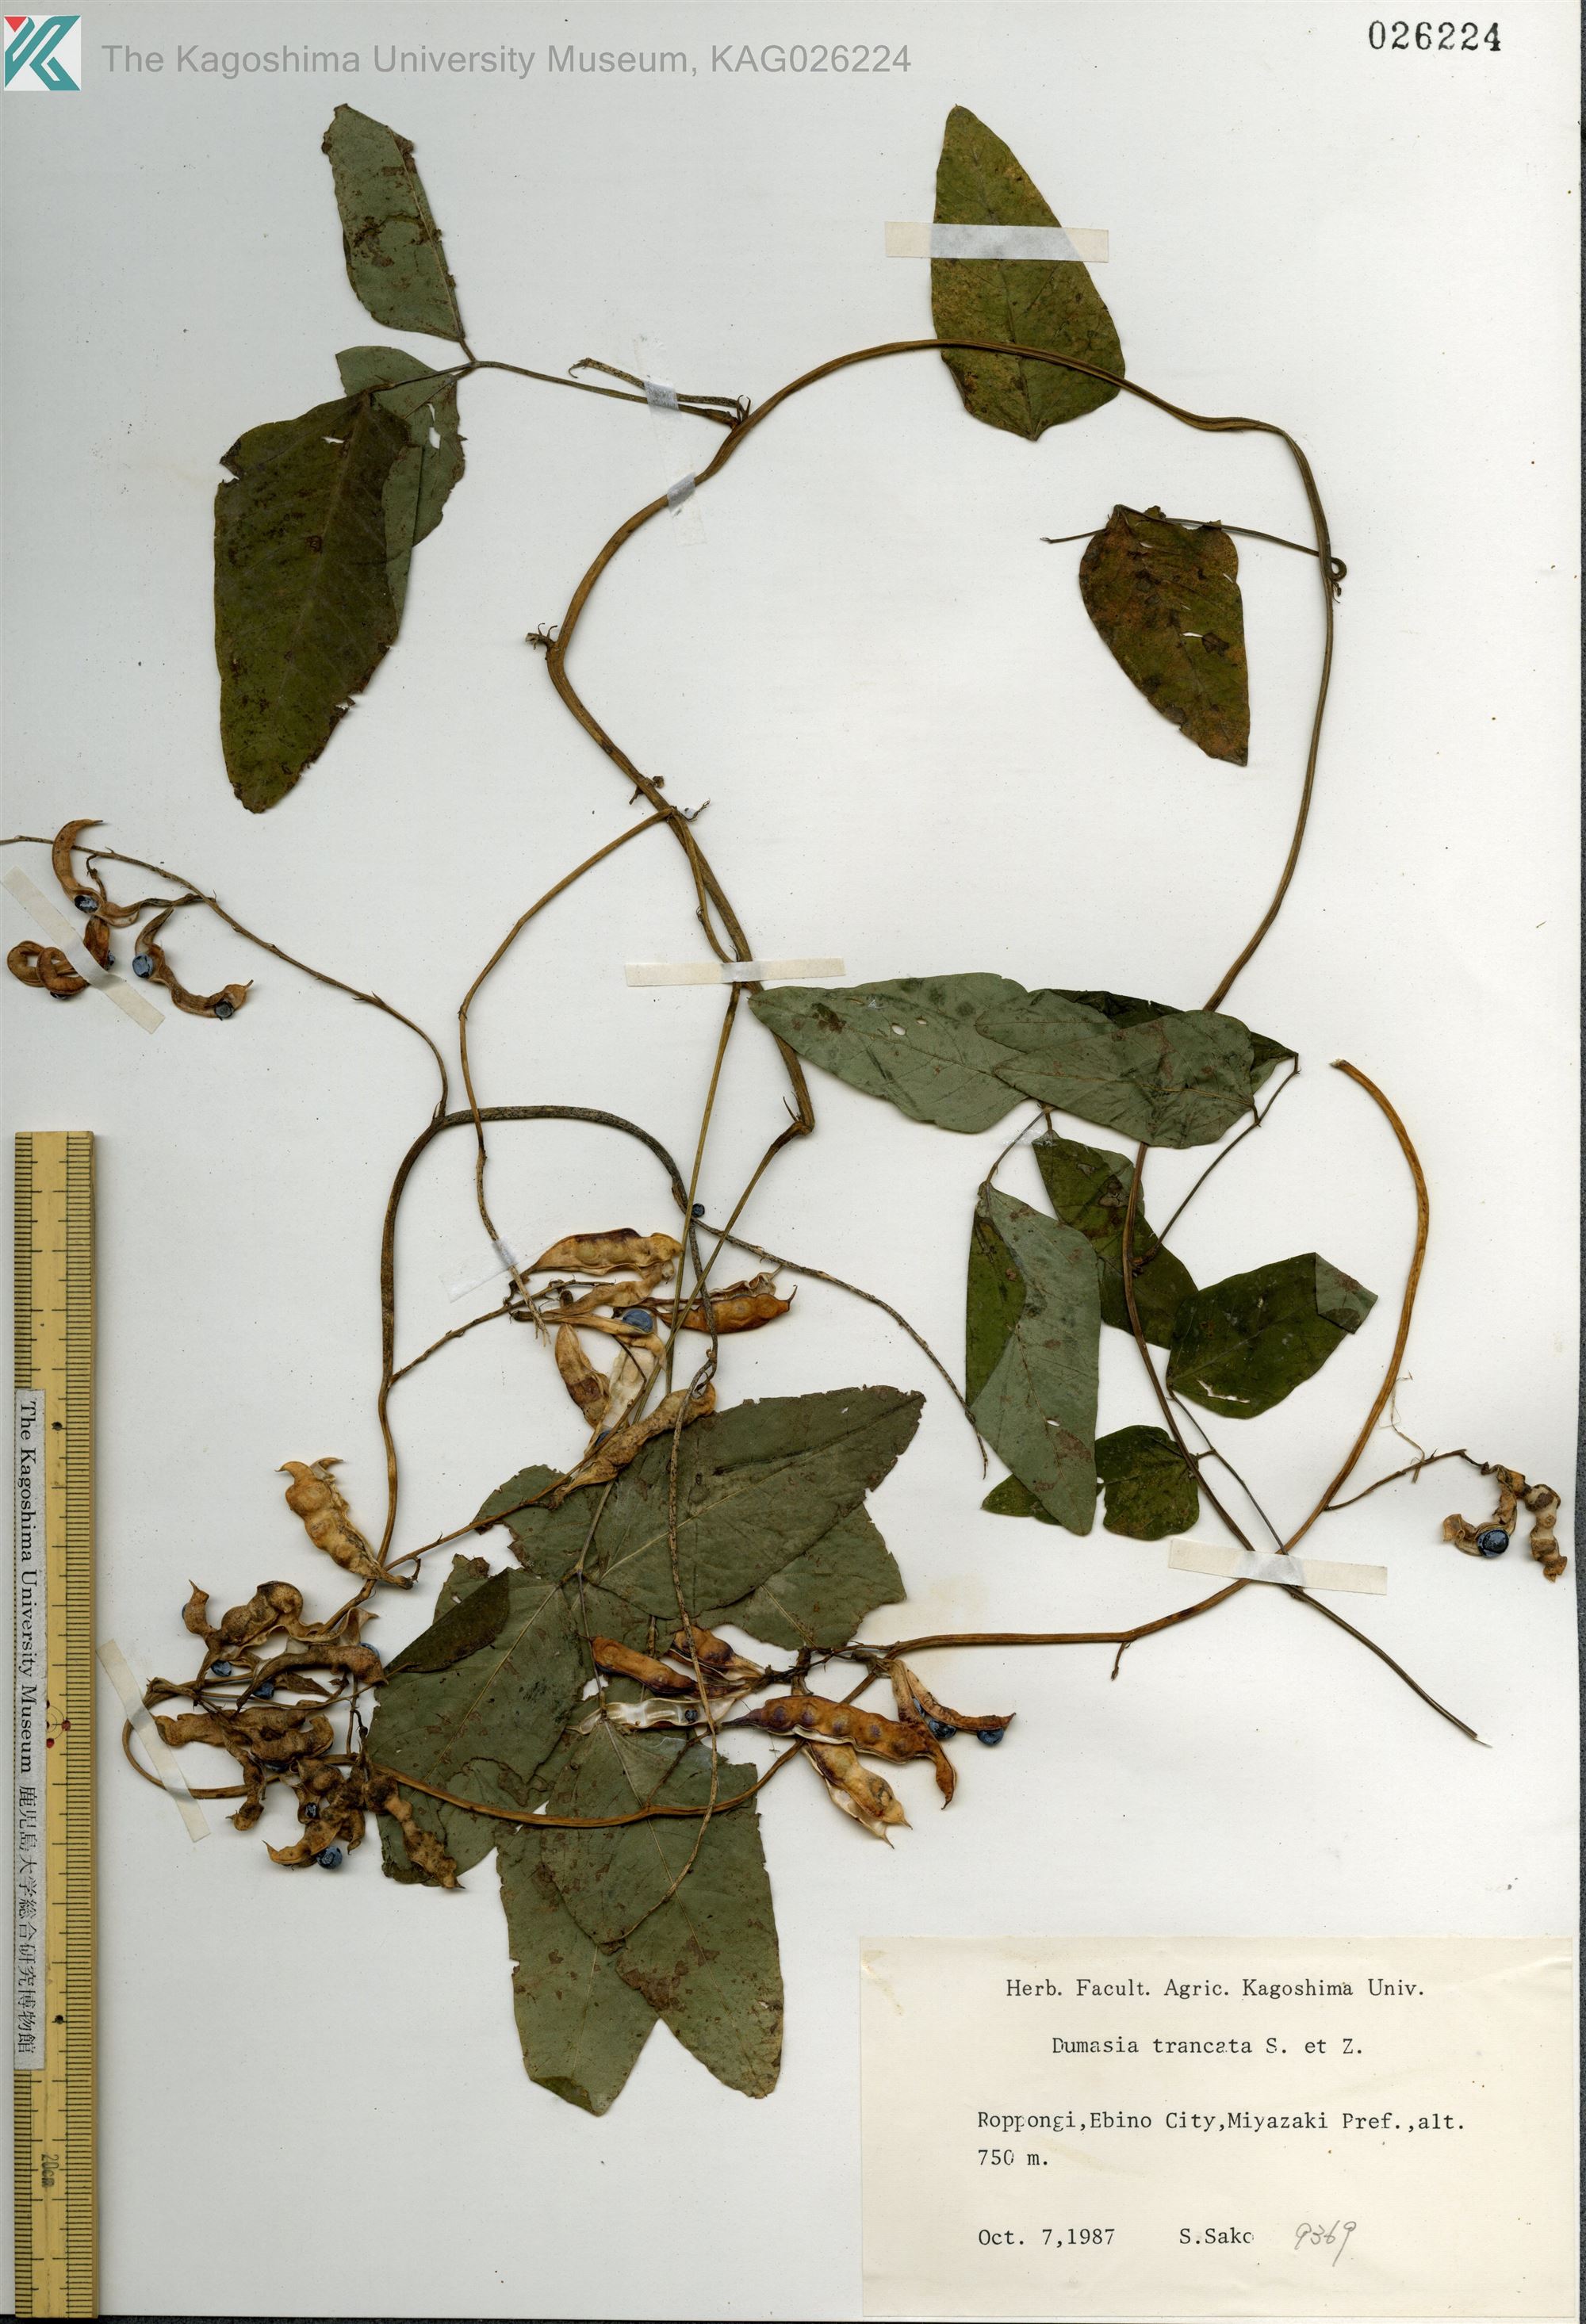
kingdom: Plantae
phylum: Tracheophyta
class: Magnoliopsida
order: Fabales
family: Fabaceae
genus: Dumasia
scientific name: Dumasia truncata
